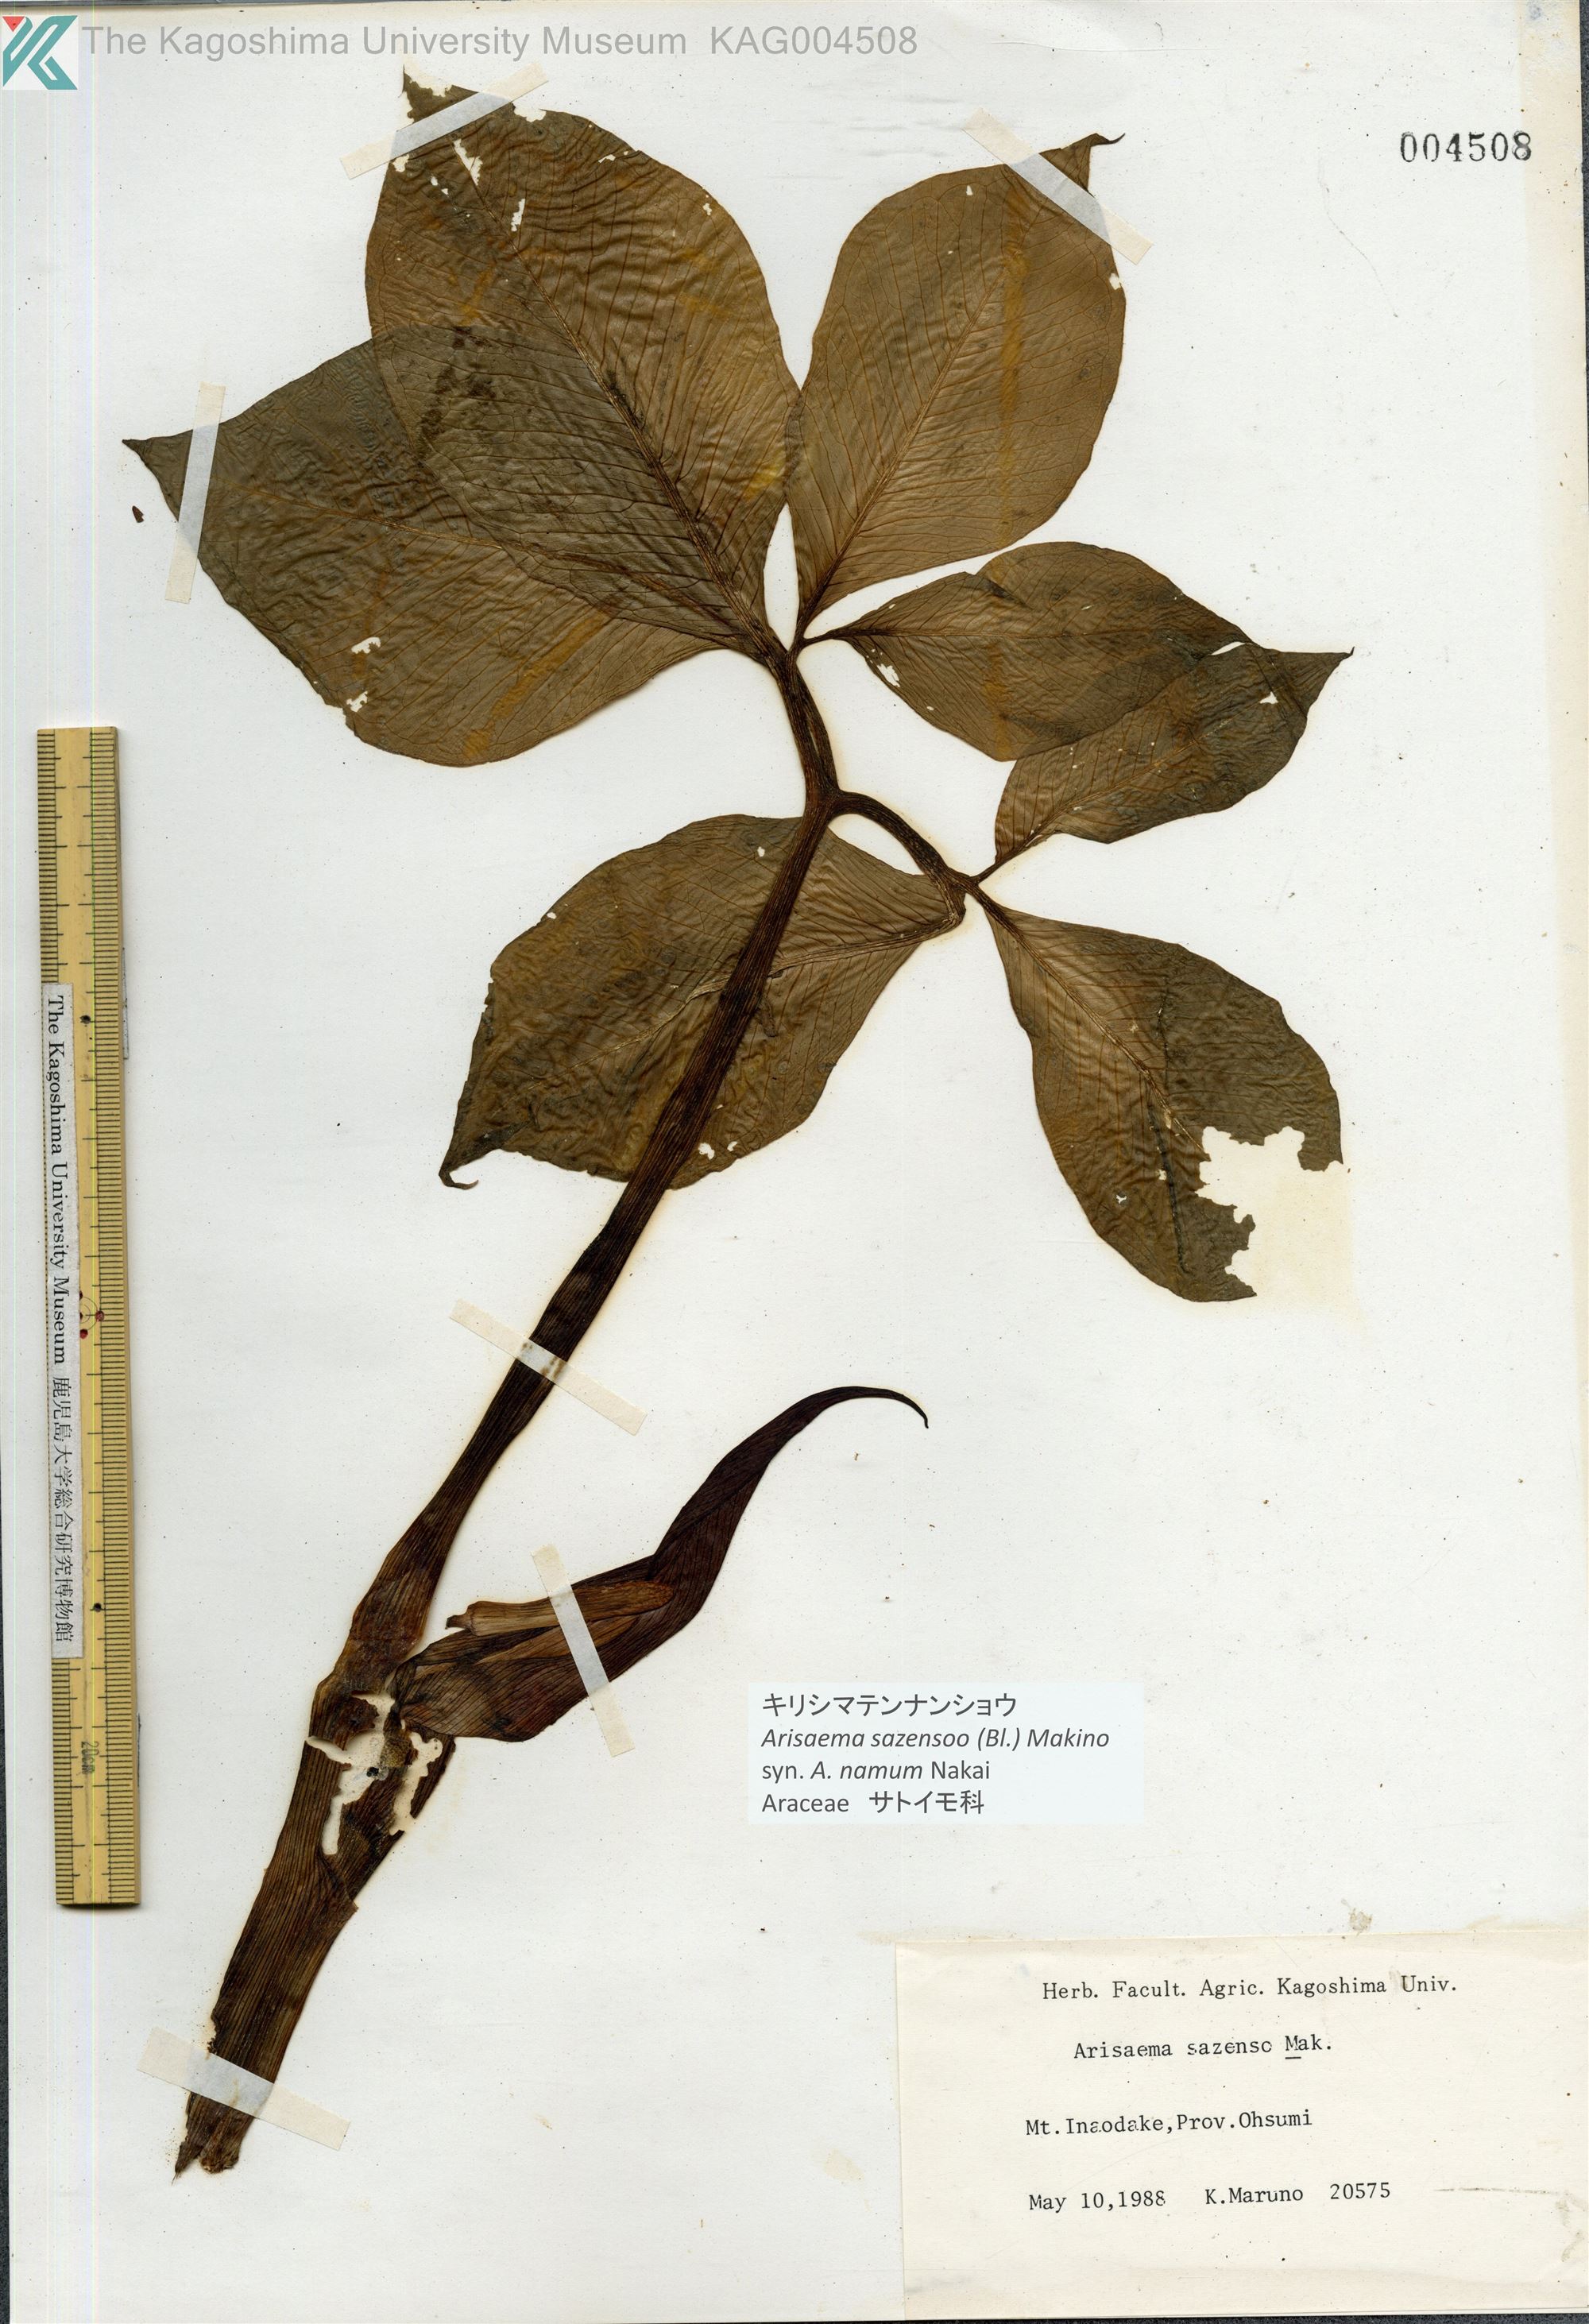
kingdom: Plantae
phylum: Tracheophyta
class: Liliopsida
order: Alismatales
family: Araceae
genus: Arisaema
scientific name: Arisaema sazensoo
